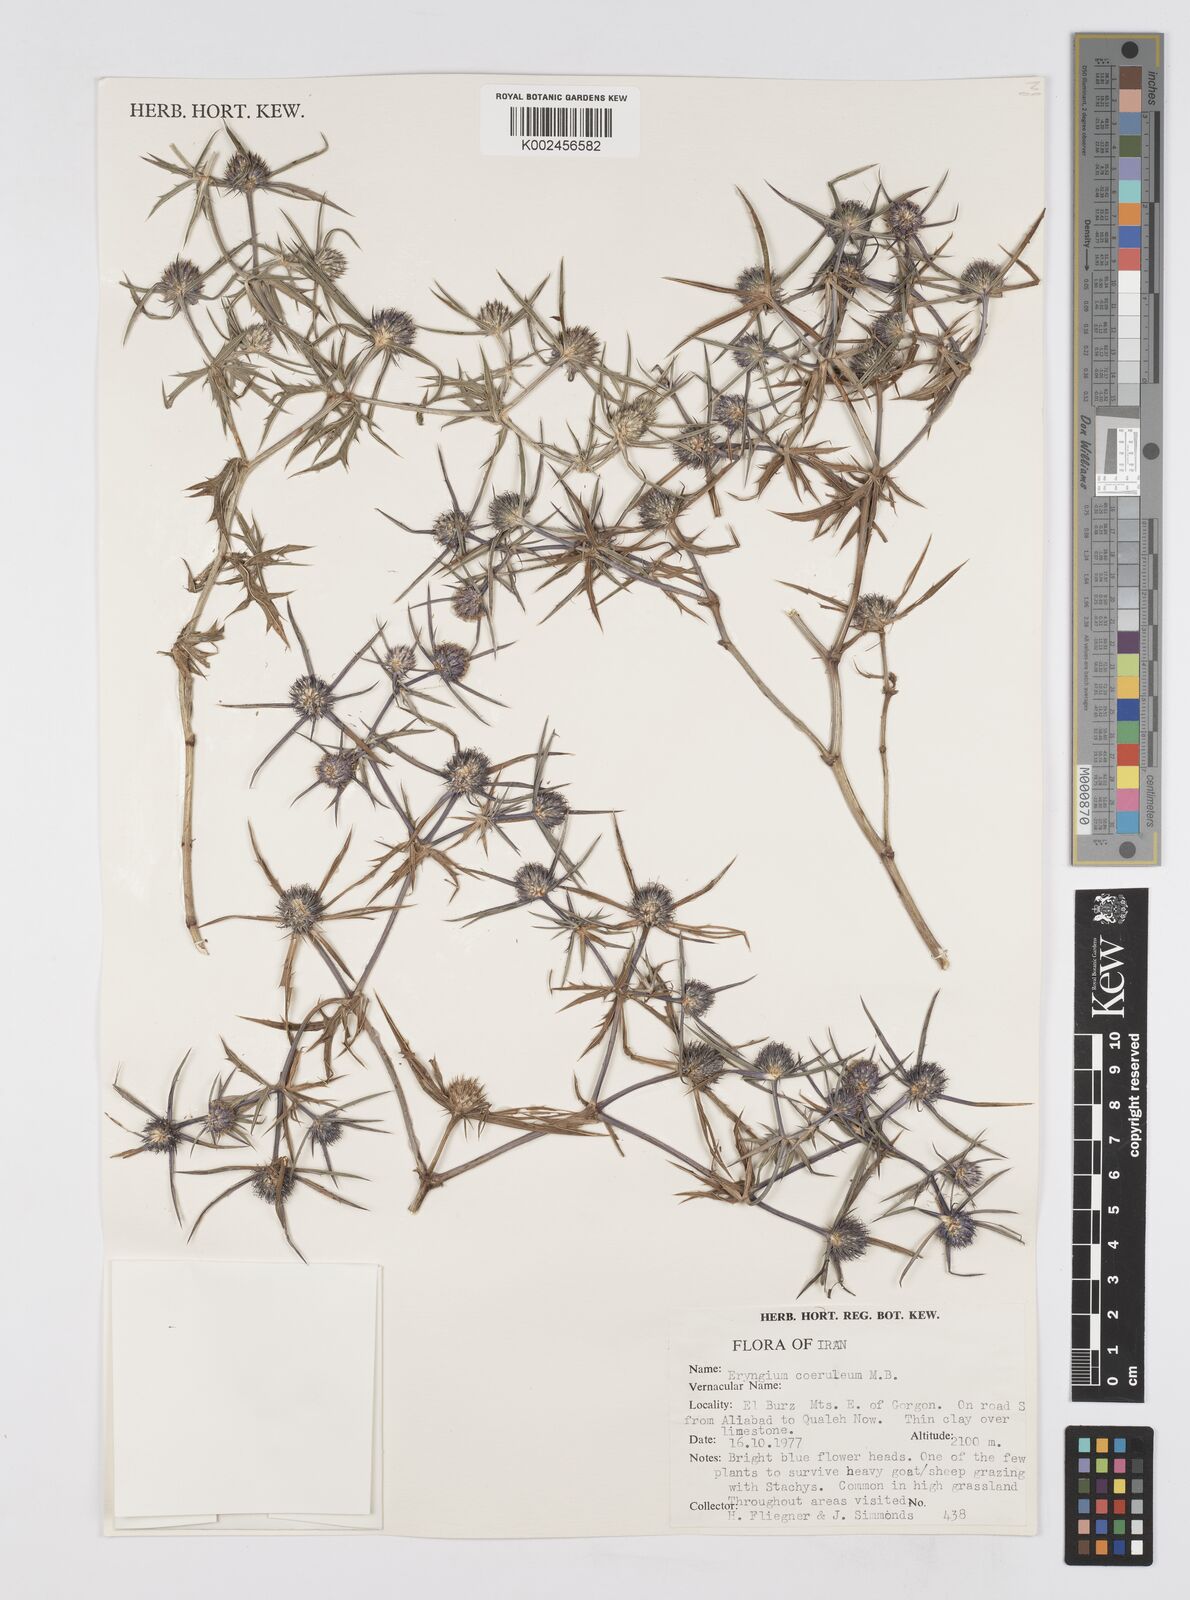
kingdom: Plantae
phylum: Tracheophyta
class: Magnoliopsida
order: Apiales
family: Apiaceae
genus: Eryngium
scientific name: Eryngium caeruleum
